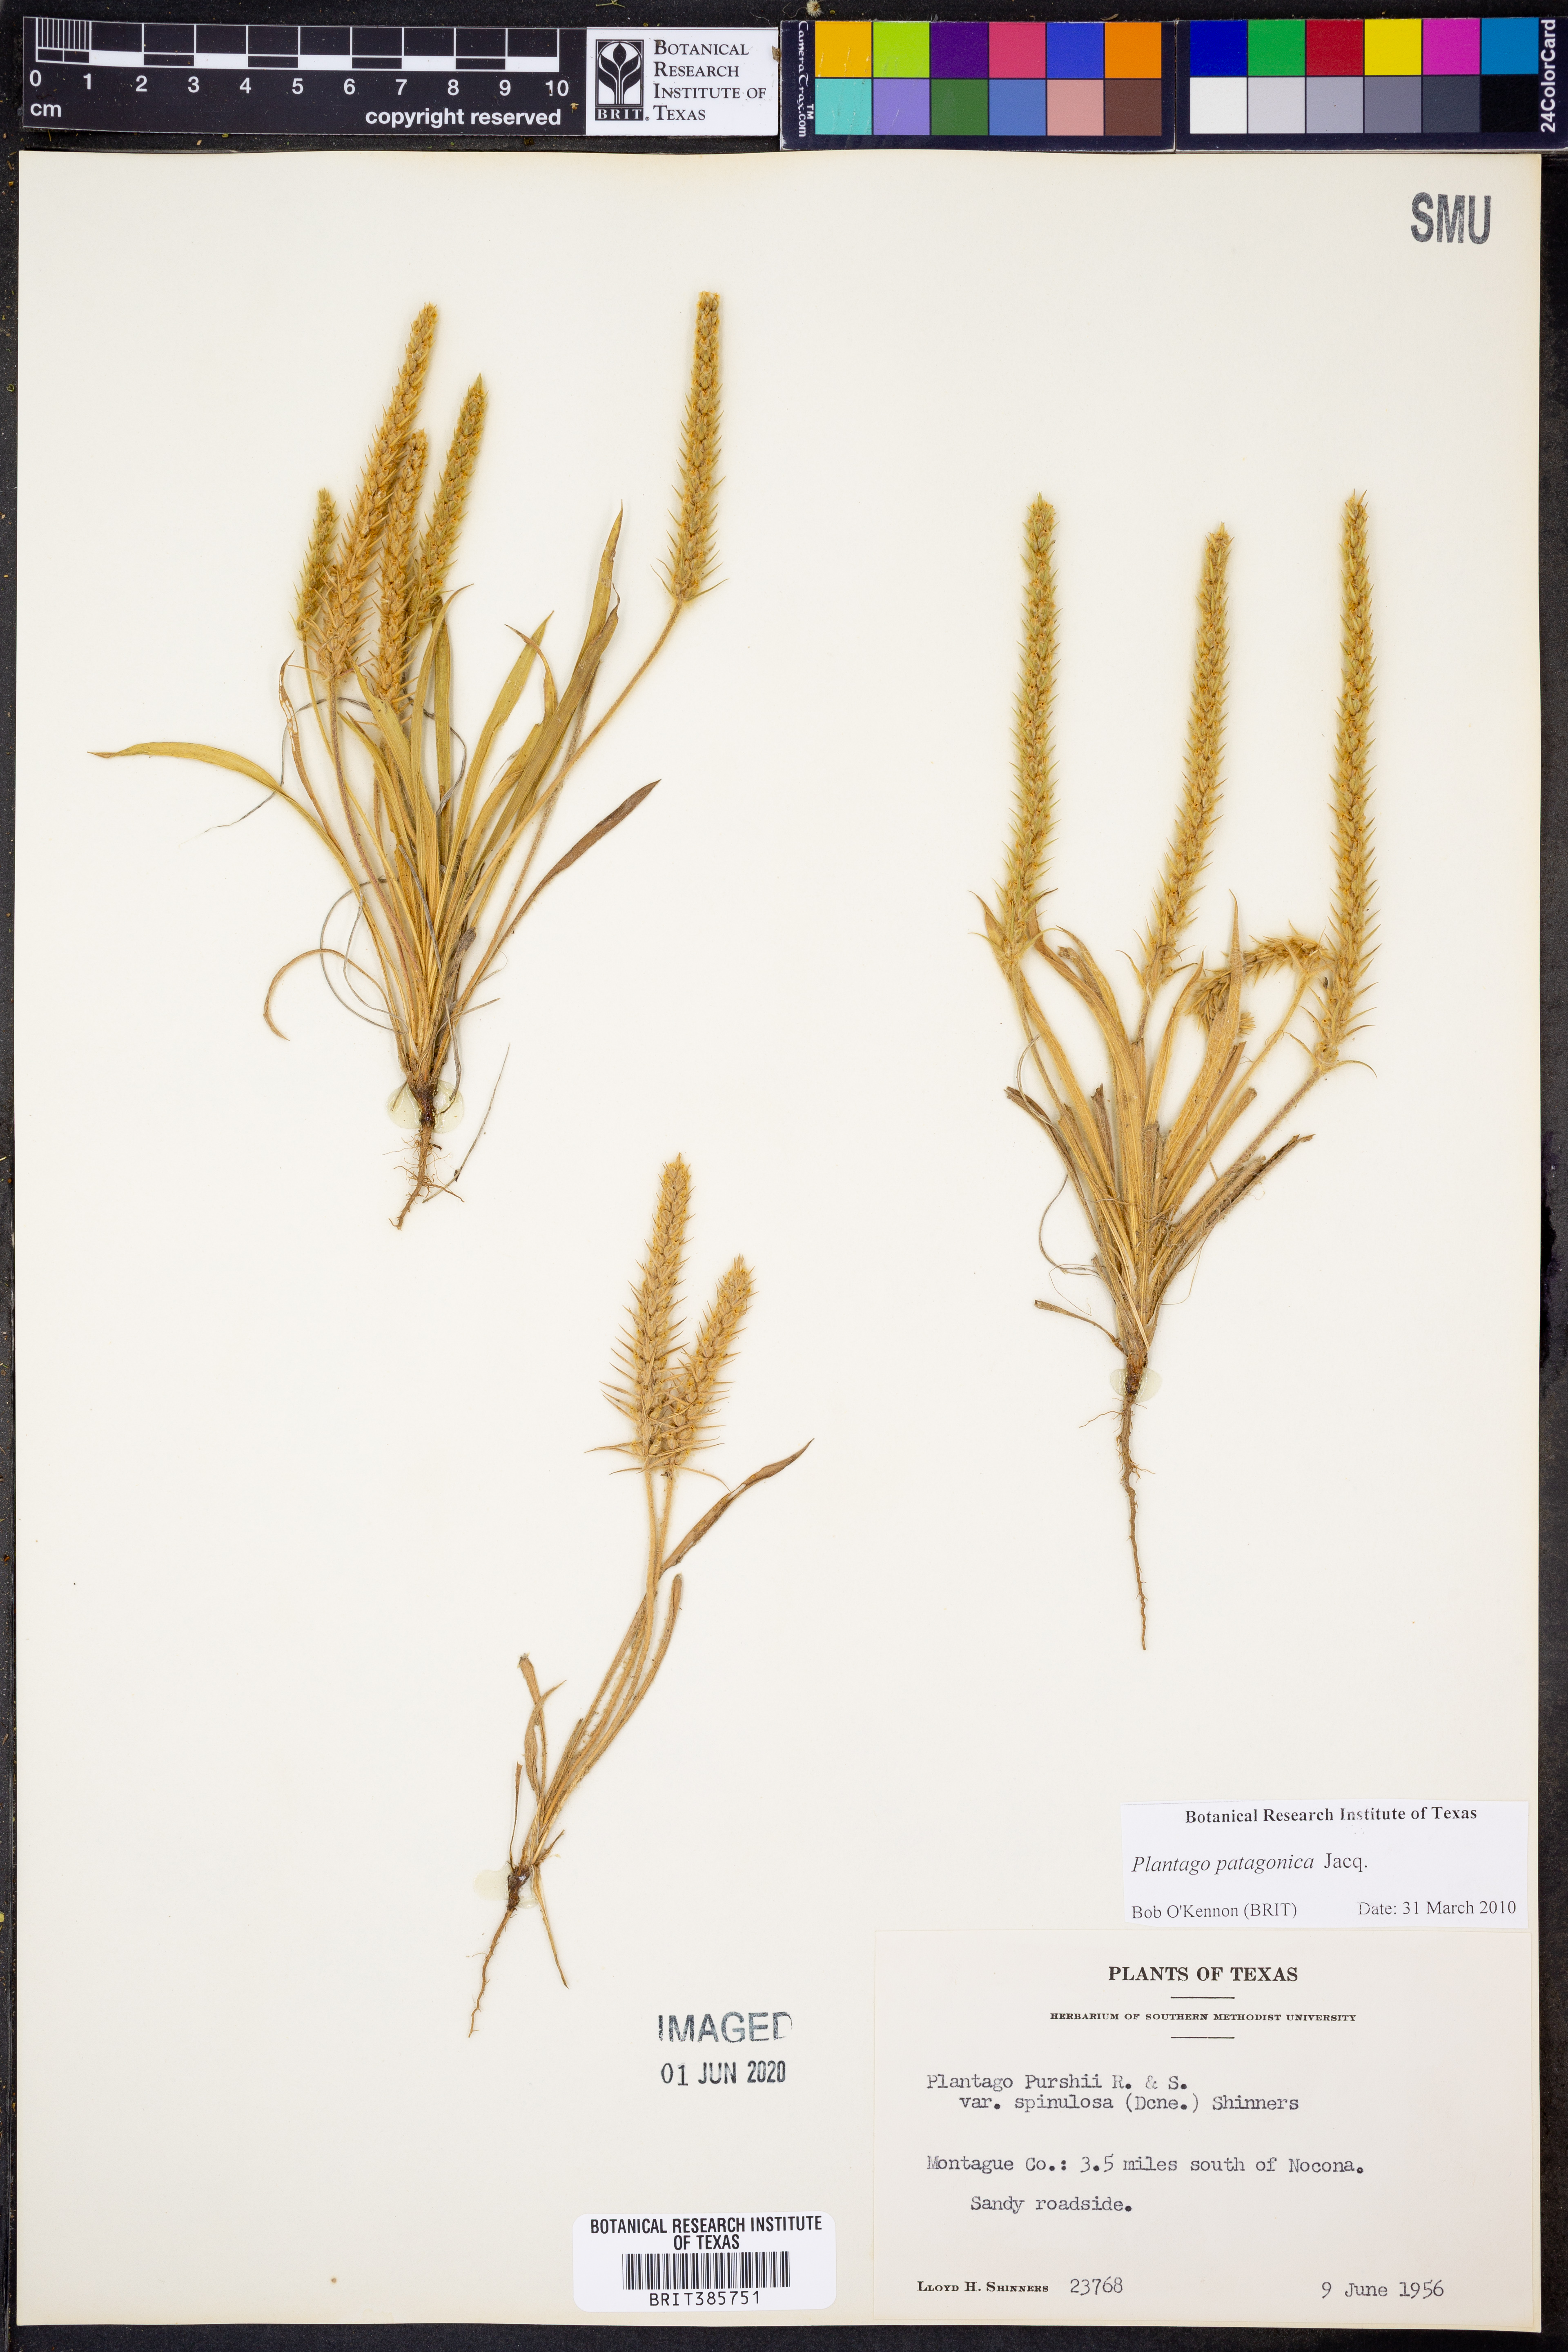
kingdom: Plantae
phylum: Tracheophyta
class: Magnoliopsida
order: Lamiales
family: Plantaginaceae
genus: Plantago
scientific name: Plantago patagonica
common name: Patagonia indian-wheat
